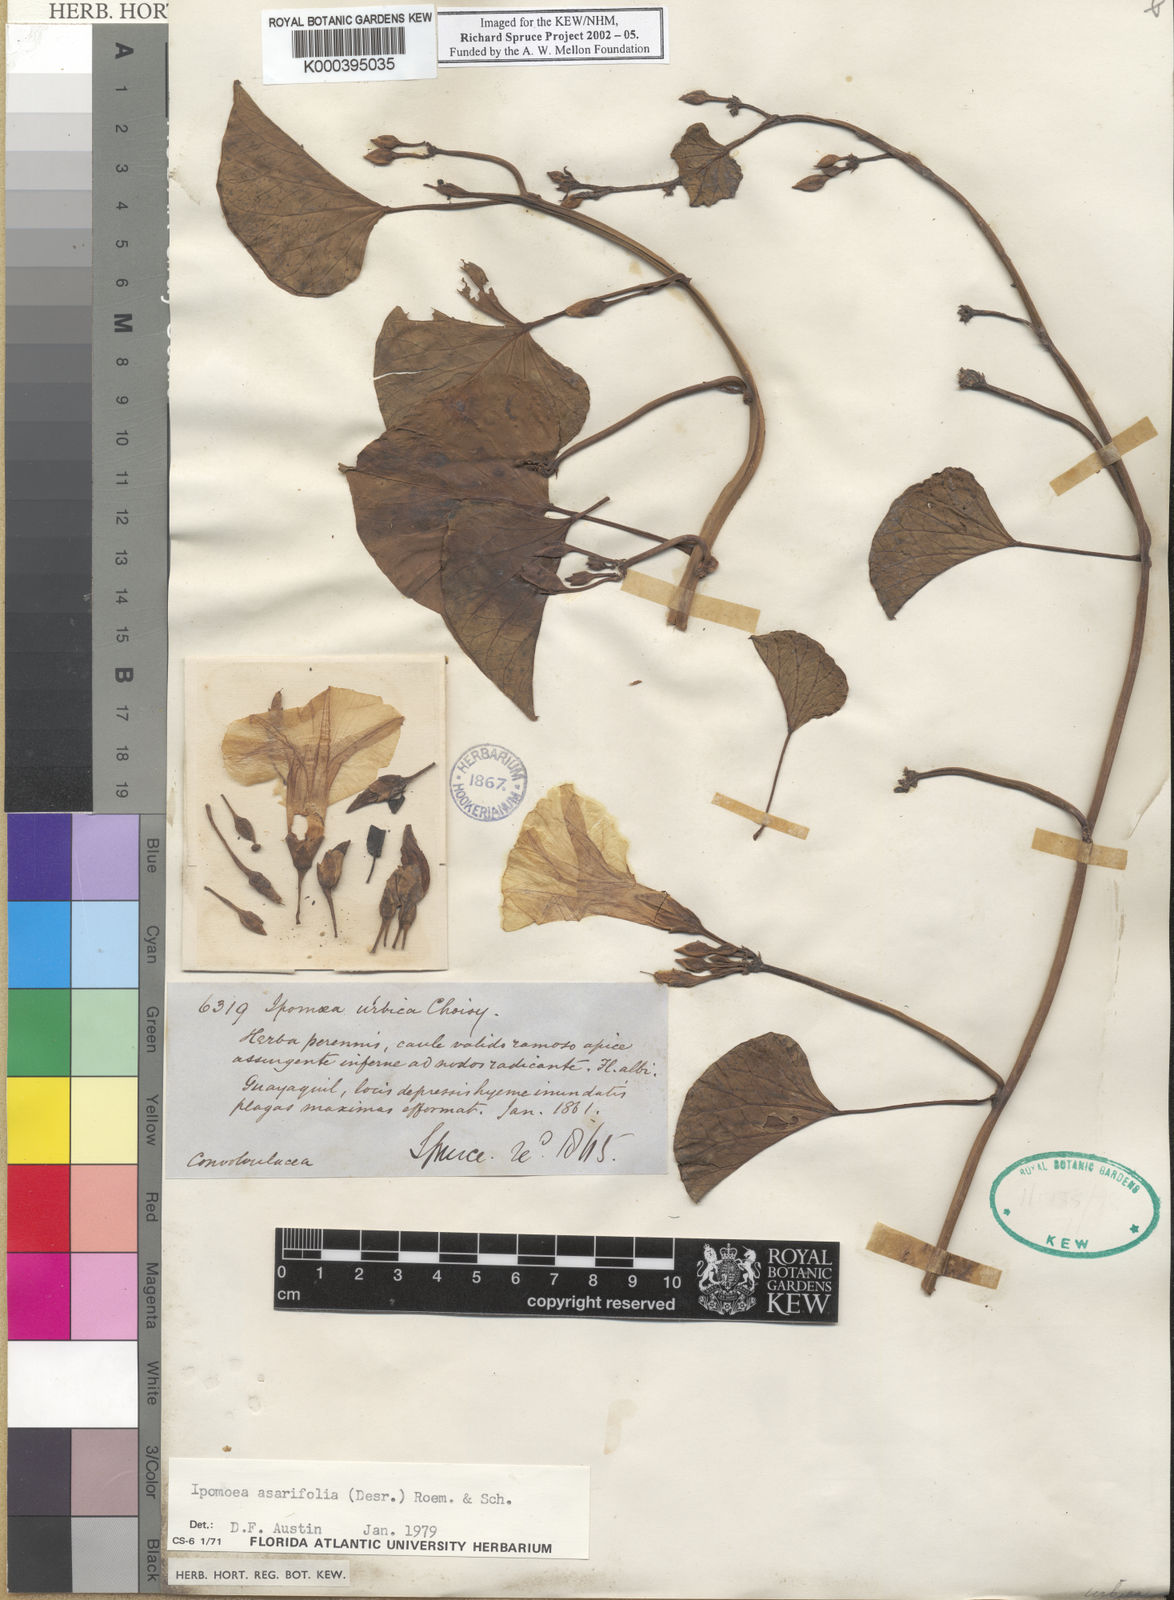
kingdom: Plantae
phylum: Tracheophyta
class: Magnoliopsida
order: Solanales
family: Convolvulaceae
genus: Ipomoea
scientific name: Ipomoea asarifolia
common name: Ginger-leaf morning-glory
